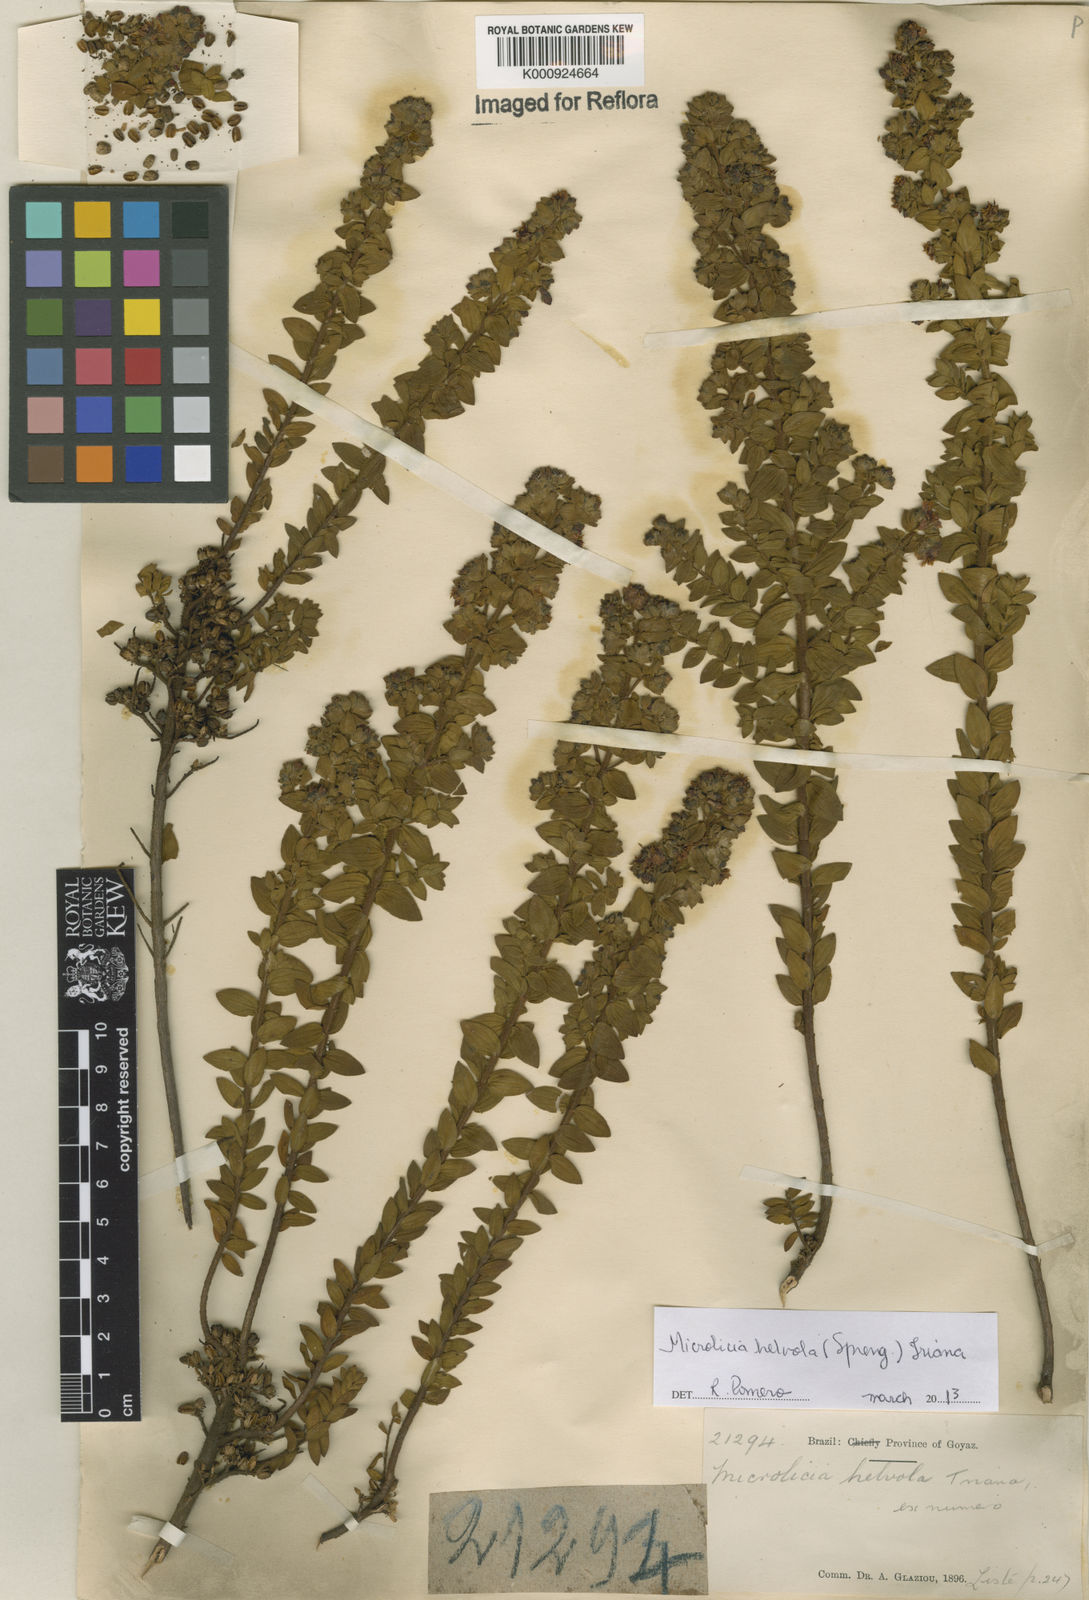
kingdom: Plantae
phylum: Tracheophyta
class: Magnoliopsida
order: Myrtales
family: Melastomataceae
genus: Microlicia
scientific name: Microlicia helvola
